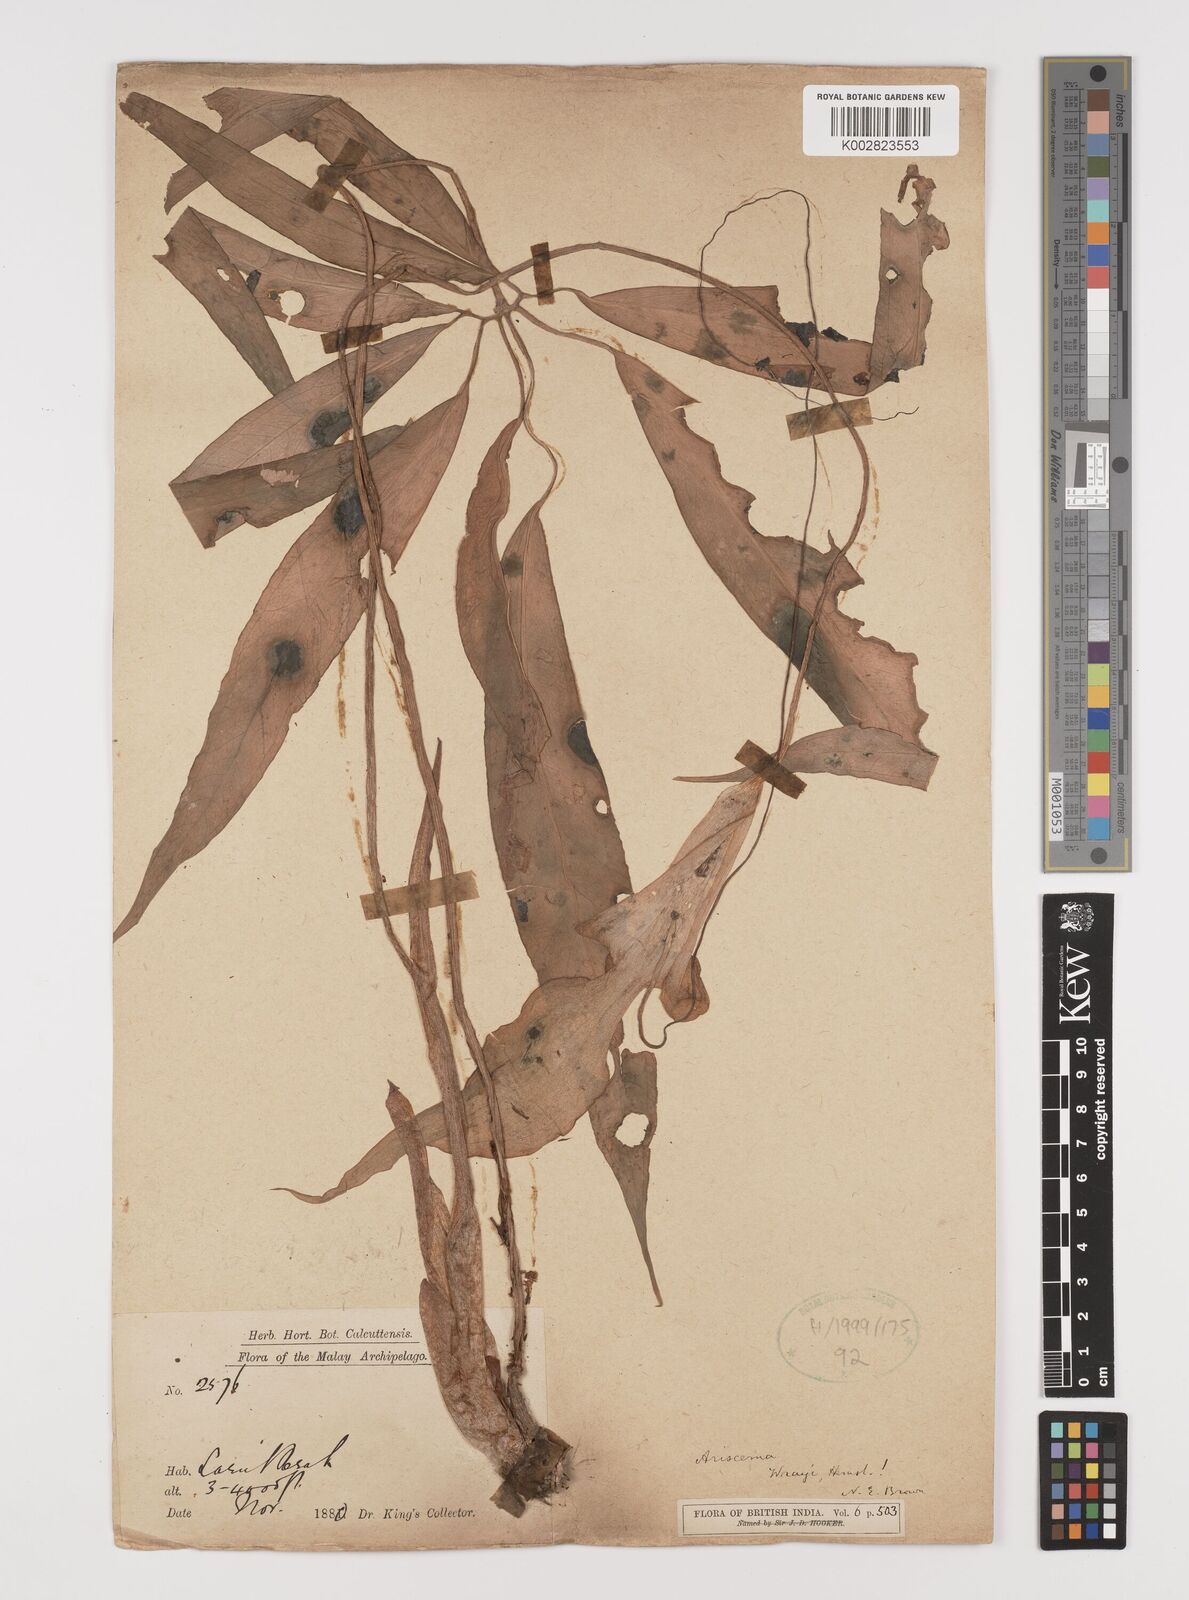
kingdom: Plantae
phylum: Tracheophyta
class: Liliopsida
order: Alismatales
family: Araceae
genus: Arisaema
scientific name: Arisaema wrayi
